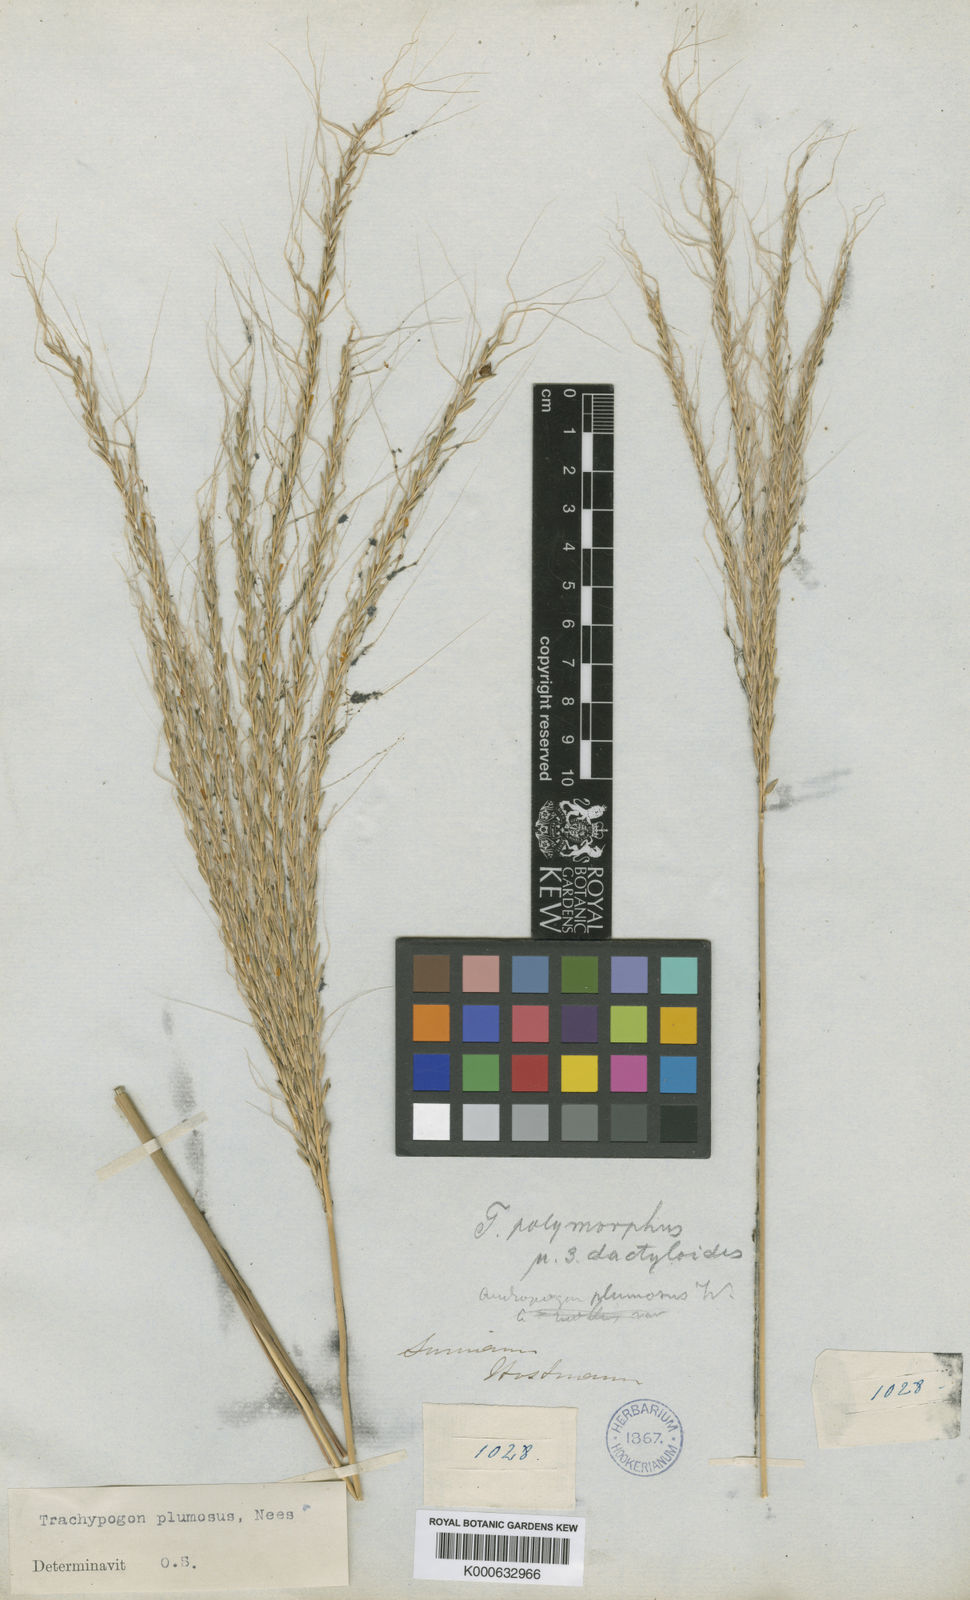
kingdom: Plantae
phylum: Tracheophyta
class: Liliopsida
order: Poales
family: Poaceae
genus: Trachypogon
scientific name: Trachypogon spicatus
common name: Crinkle-awn
